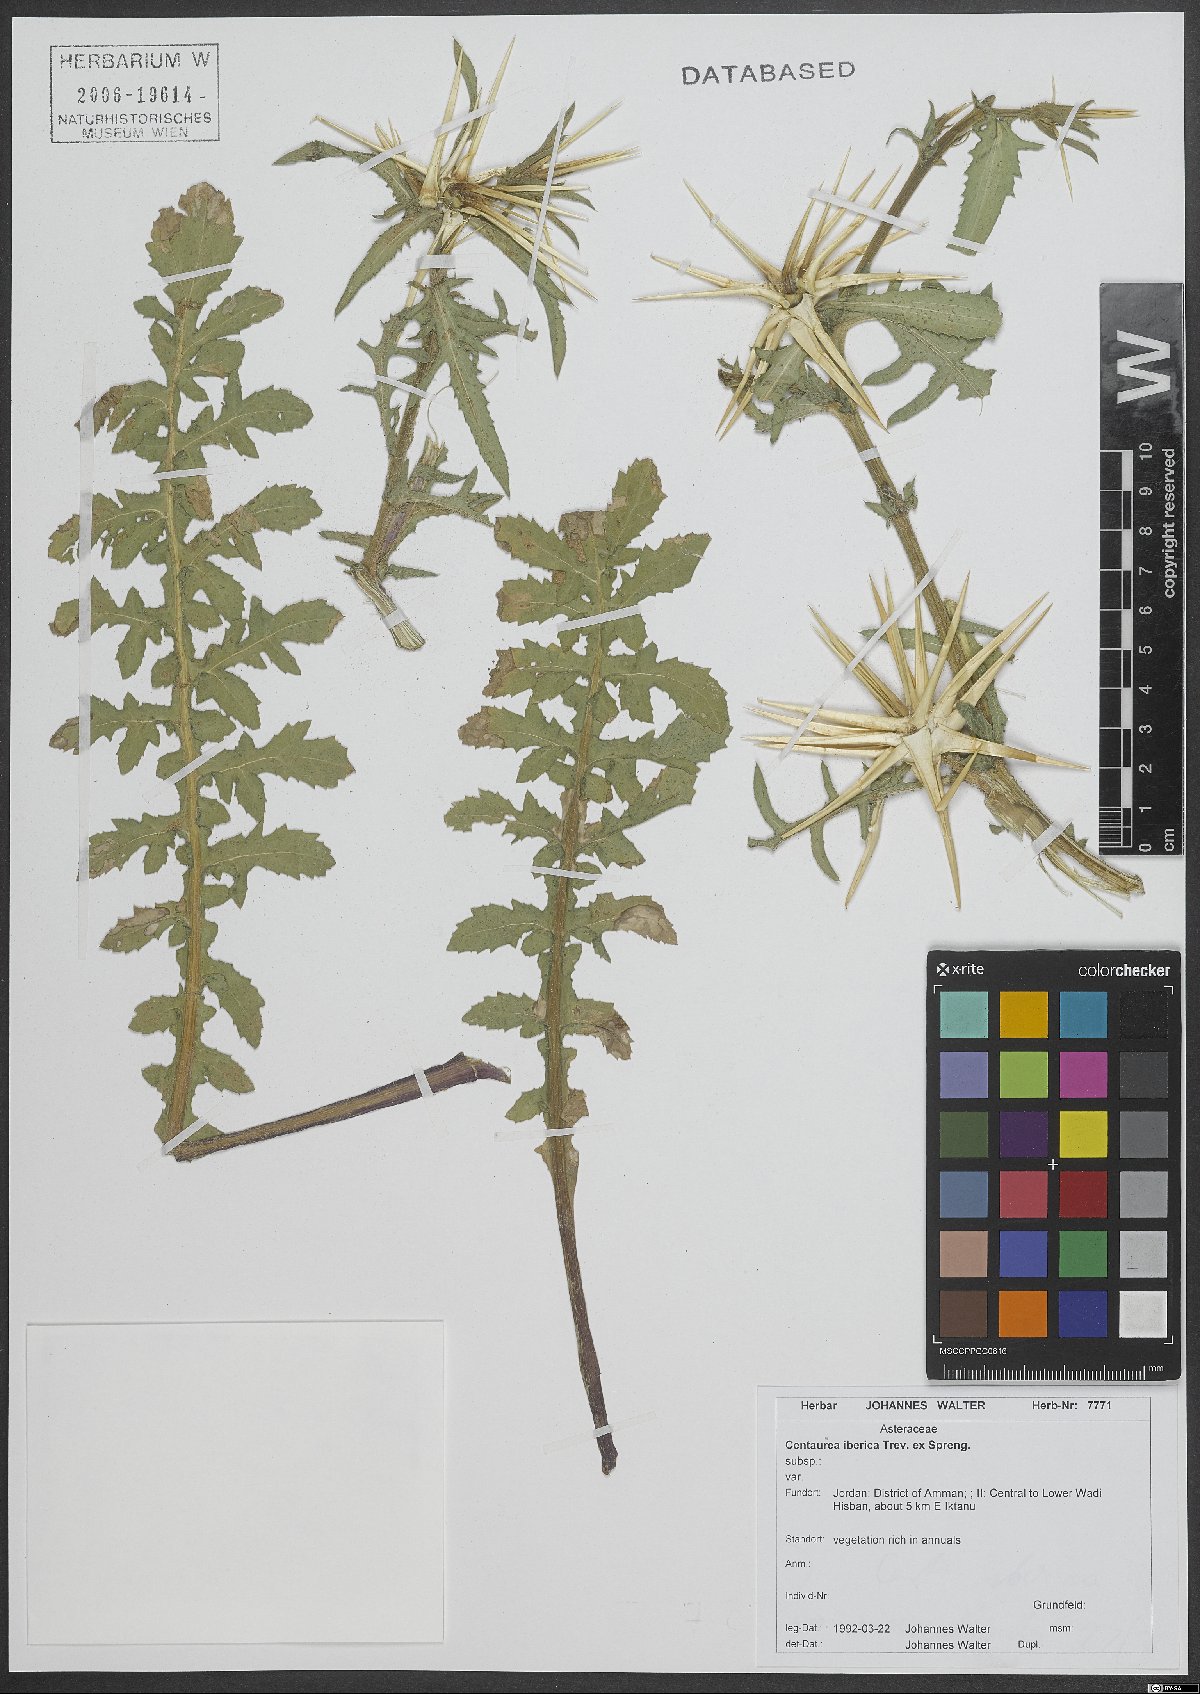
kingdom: Plantae
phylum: Tracheophyta
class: Magnoliopsida
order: Asterales
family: Asteraceae
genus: Centaurea
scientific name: Centaurea iberica
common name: Iberian knapweed
